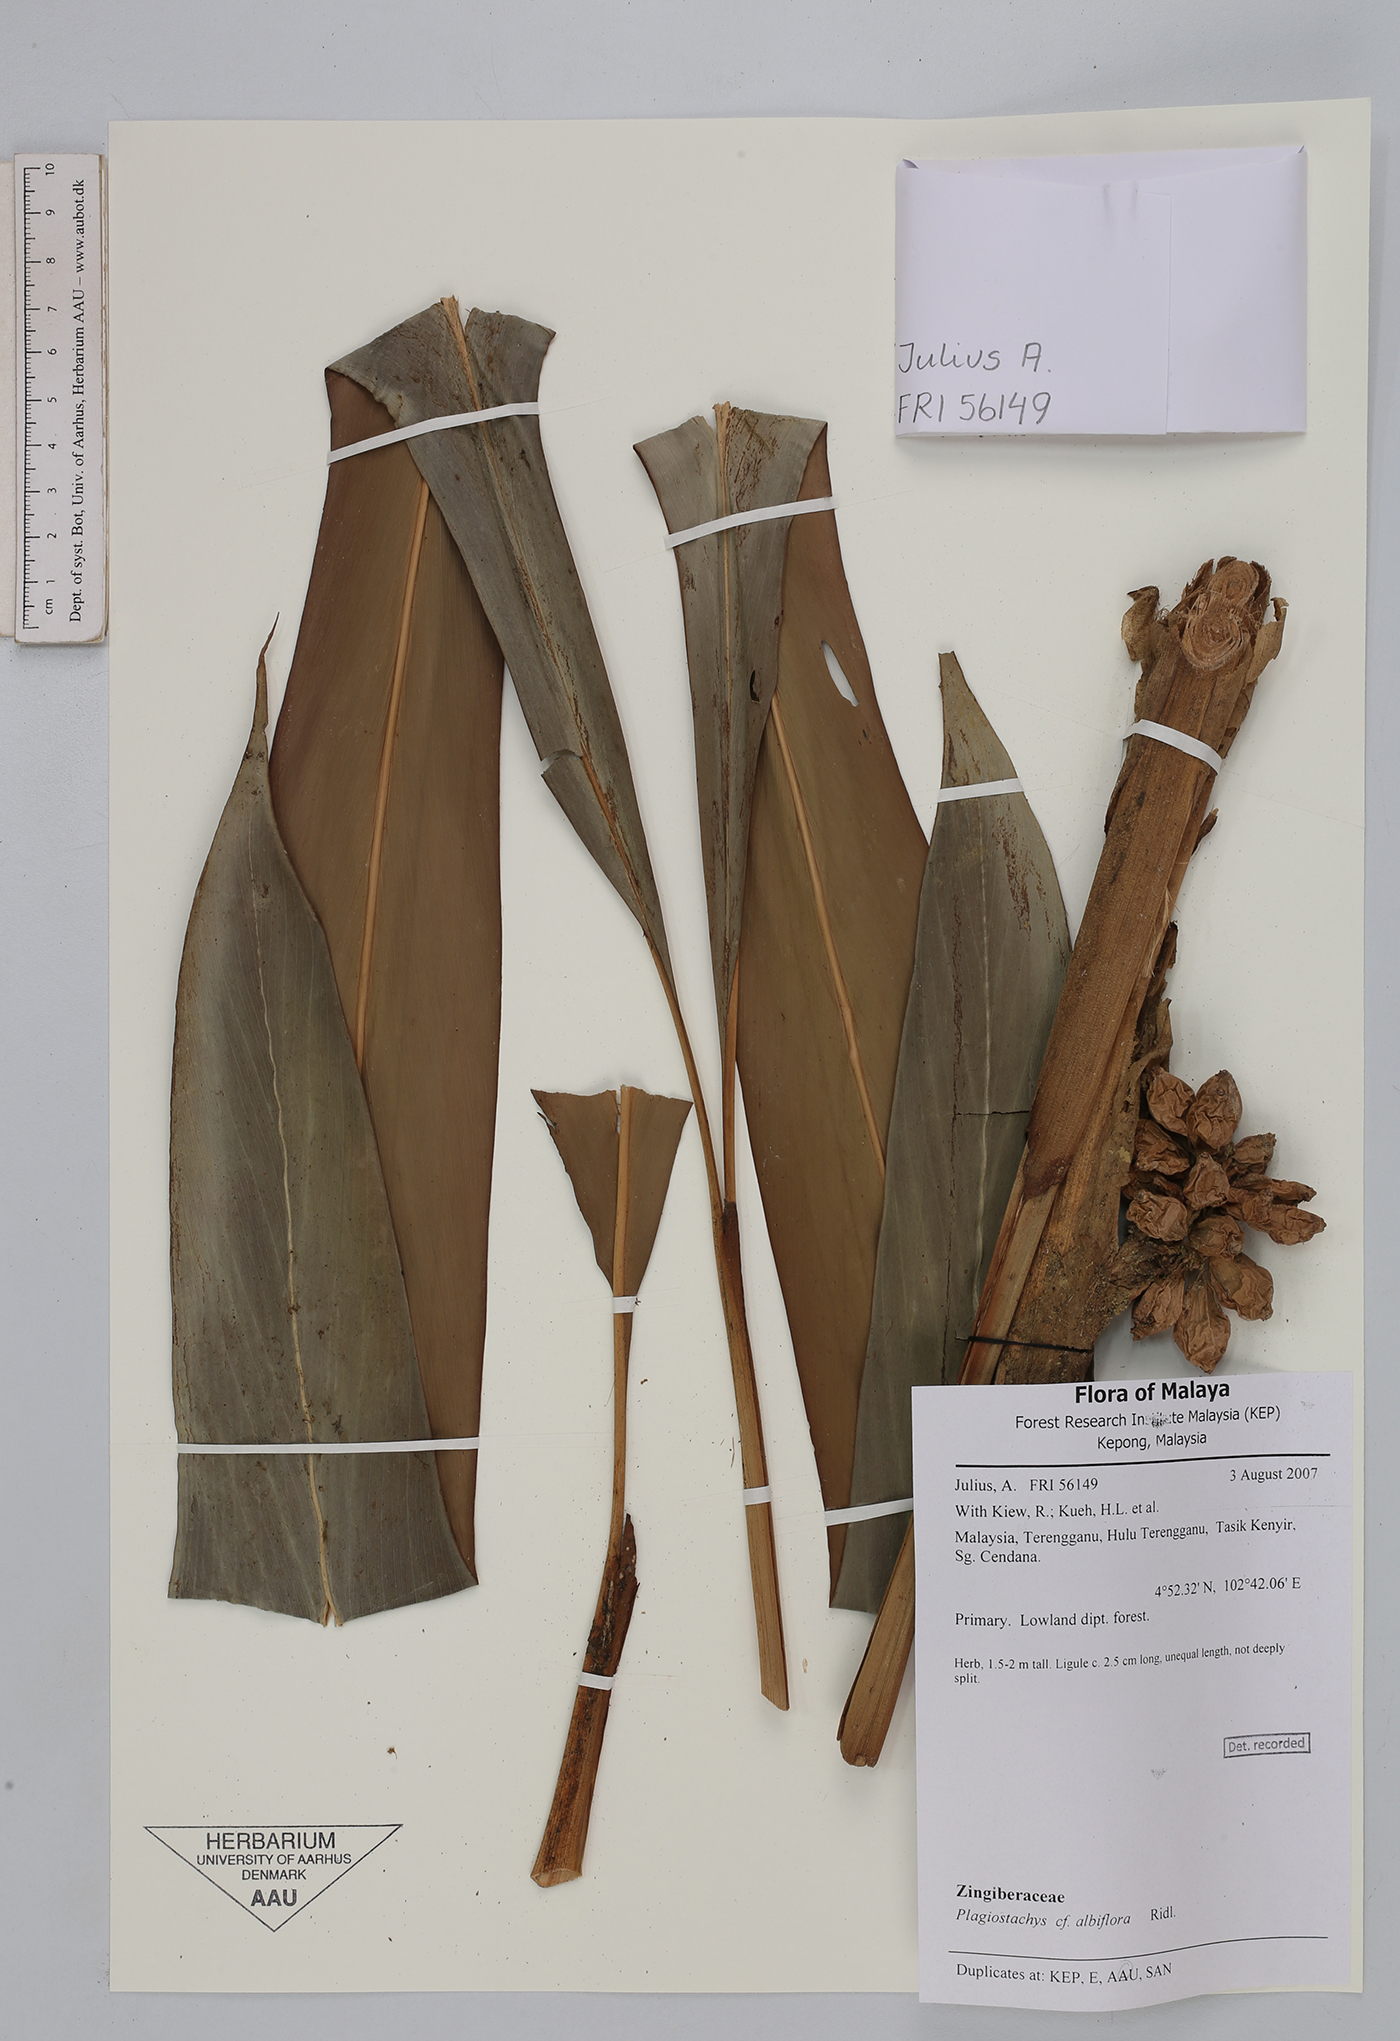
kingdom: Plantae
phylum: Tracheophyta
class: Liliopsida
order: Zingiberales
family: Zingiberaceae
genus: Plagiostachys
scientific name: Plagiostachys albiflora
